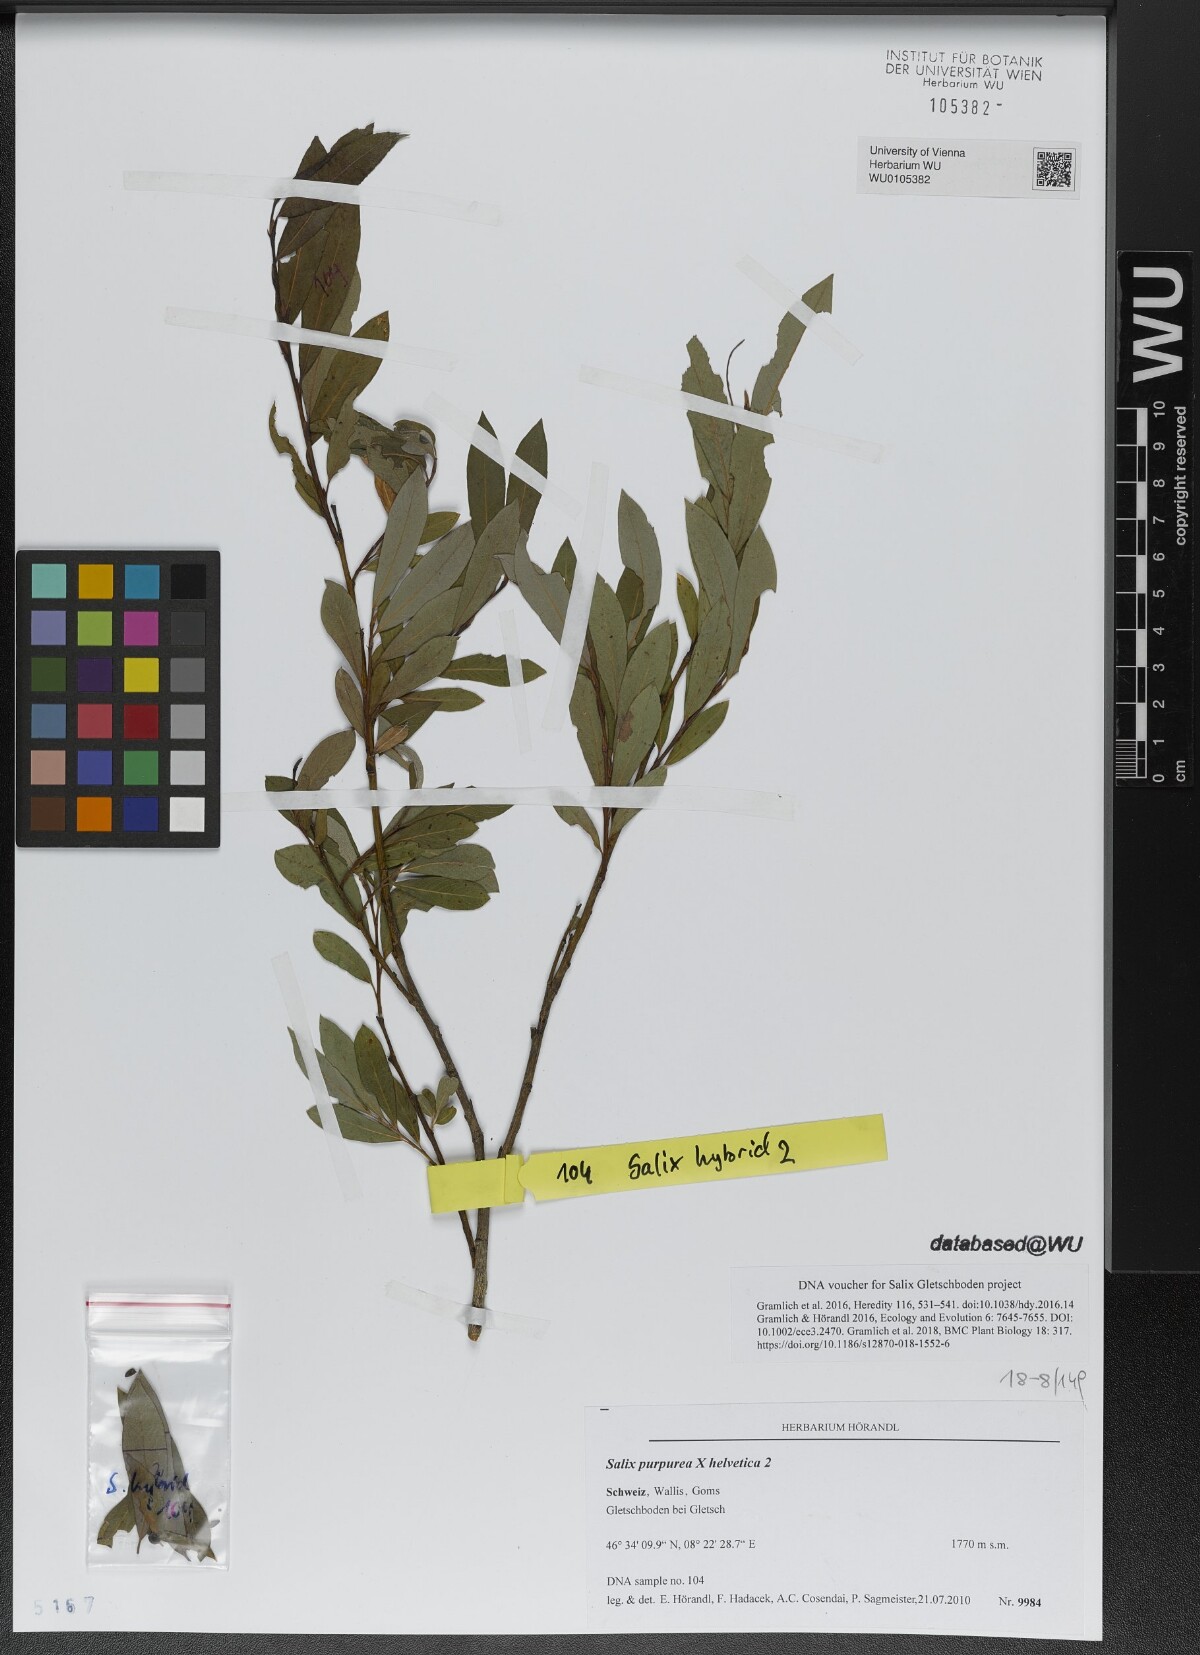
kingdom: Plantae
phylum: Tracheophyta
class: Magnoliopsida
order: Malpighiales
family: Salicaceae
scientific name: Salicaceae
